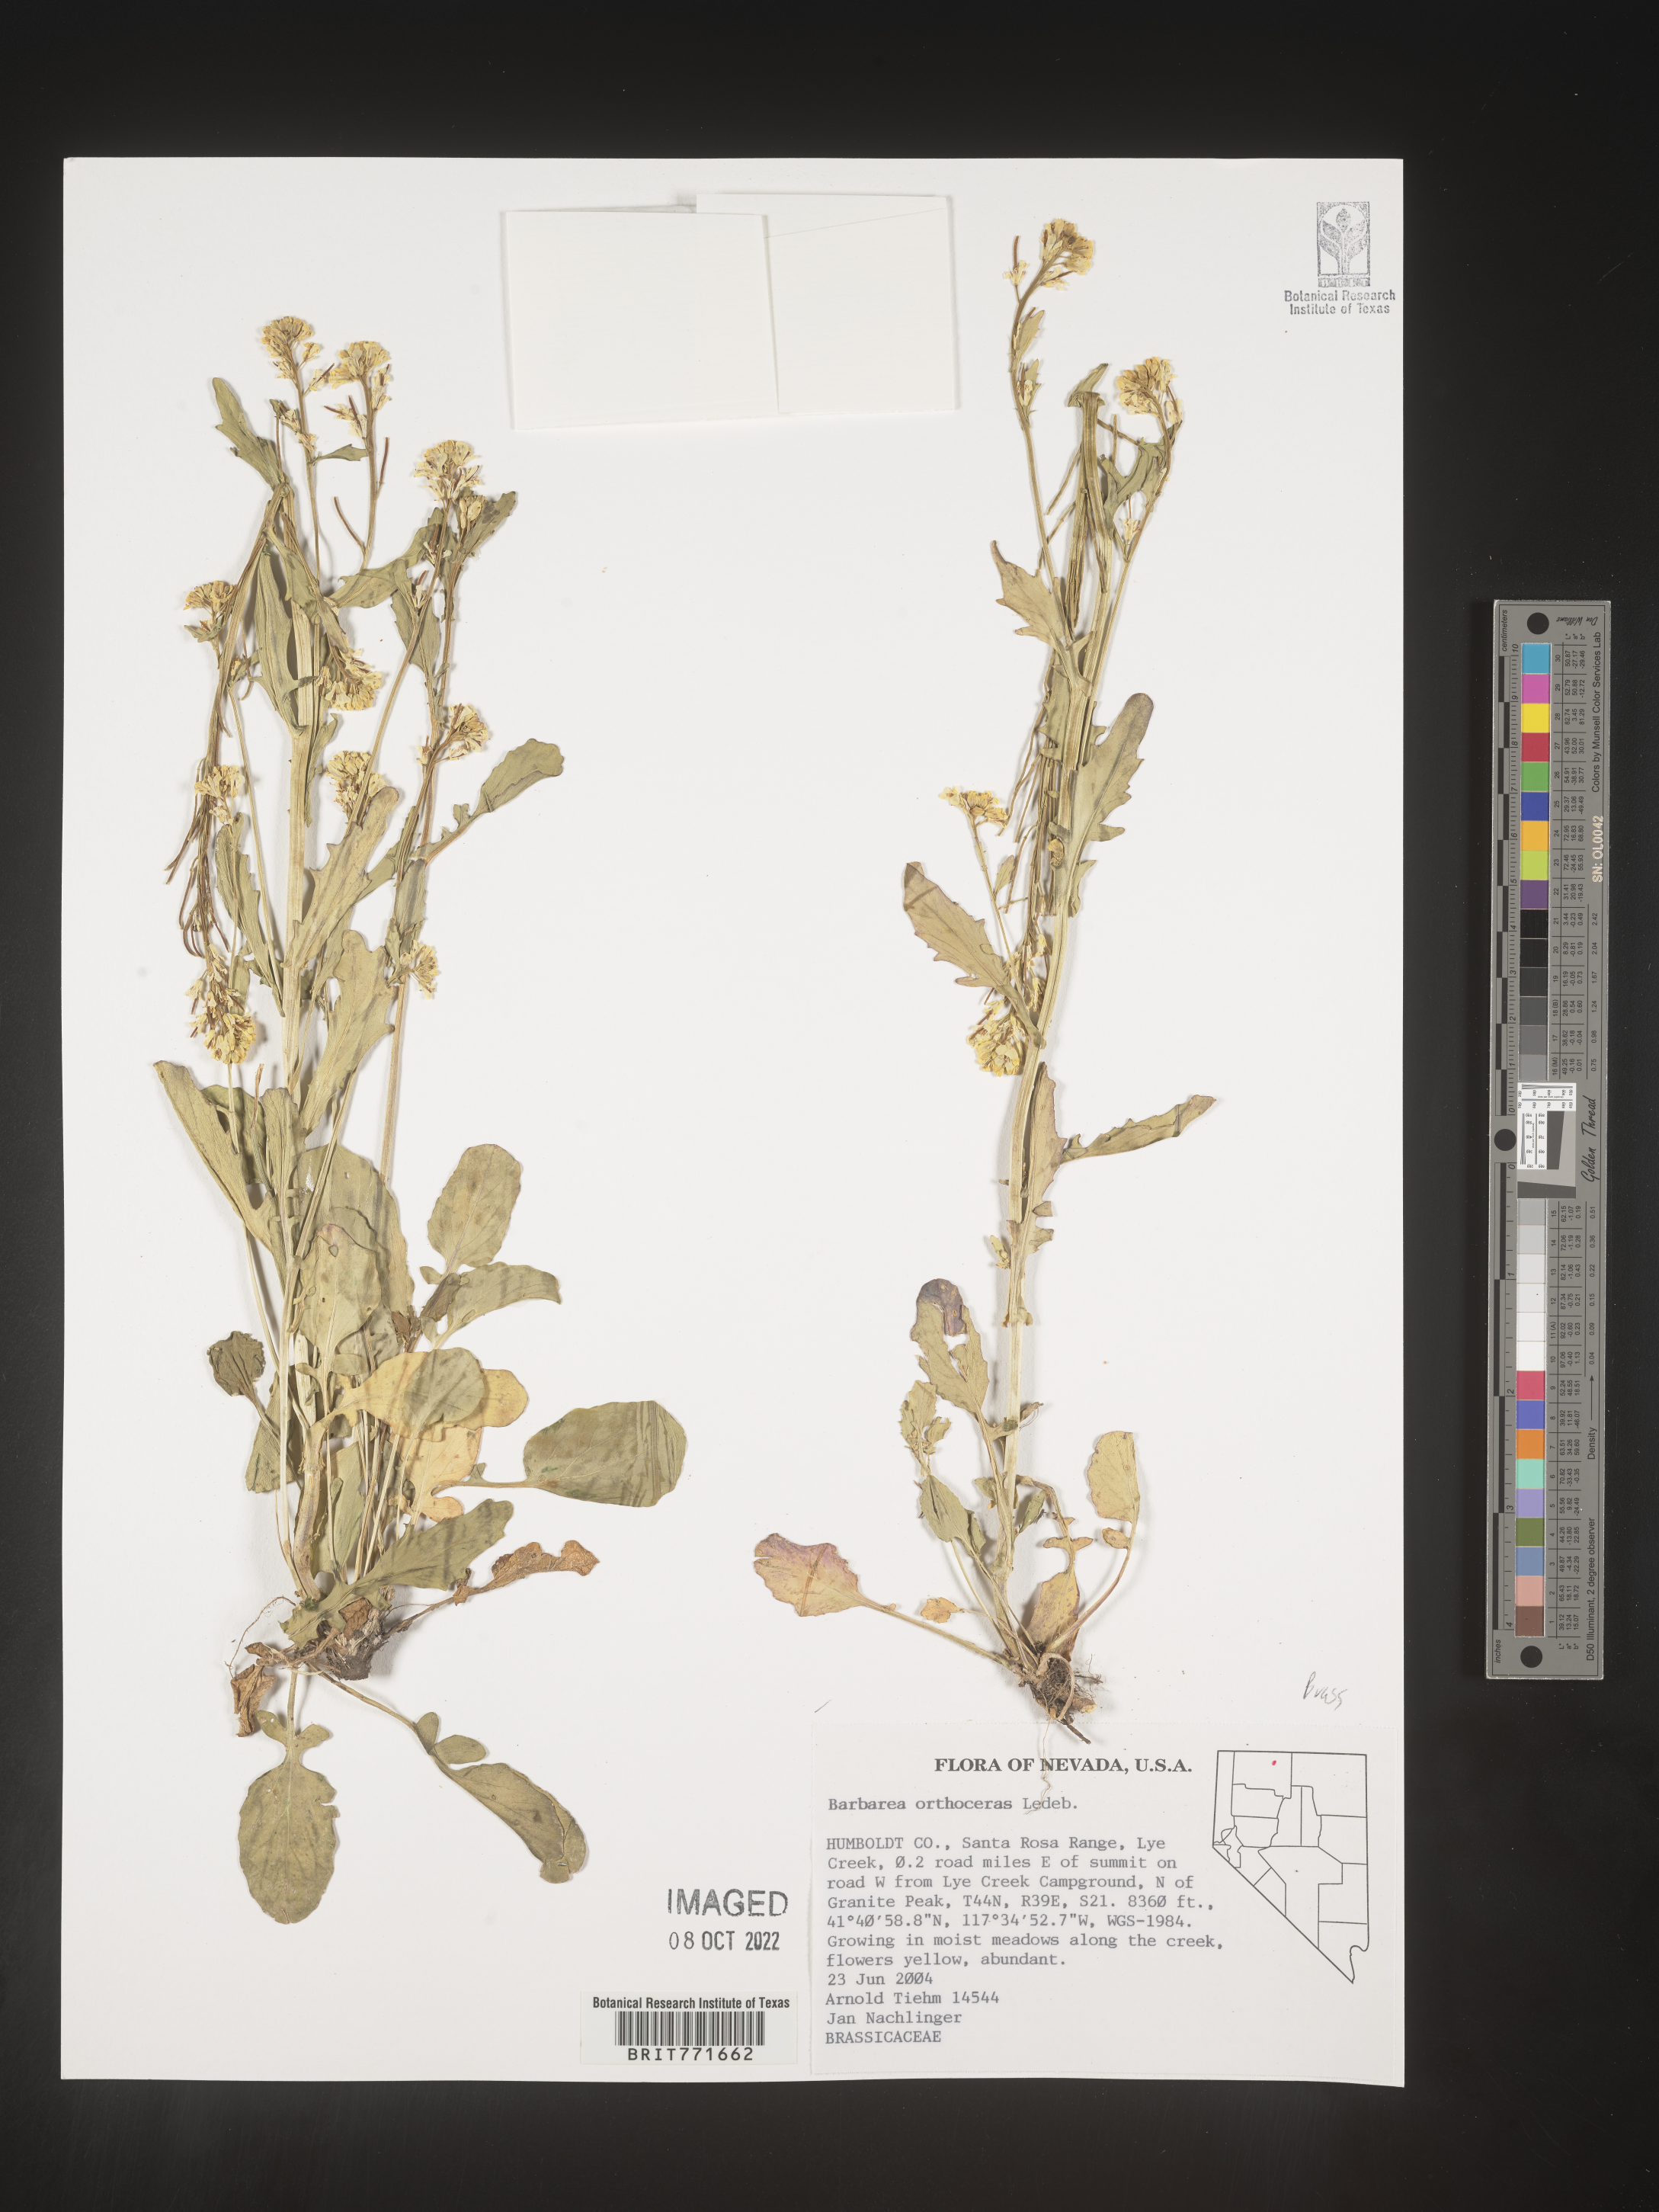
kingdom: Plantae
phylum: Tracheophyta
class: Magnoliopsida
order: Brassicales
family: Brassicaceae
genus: Barbarea
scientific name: Barbarea
